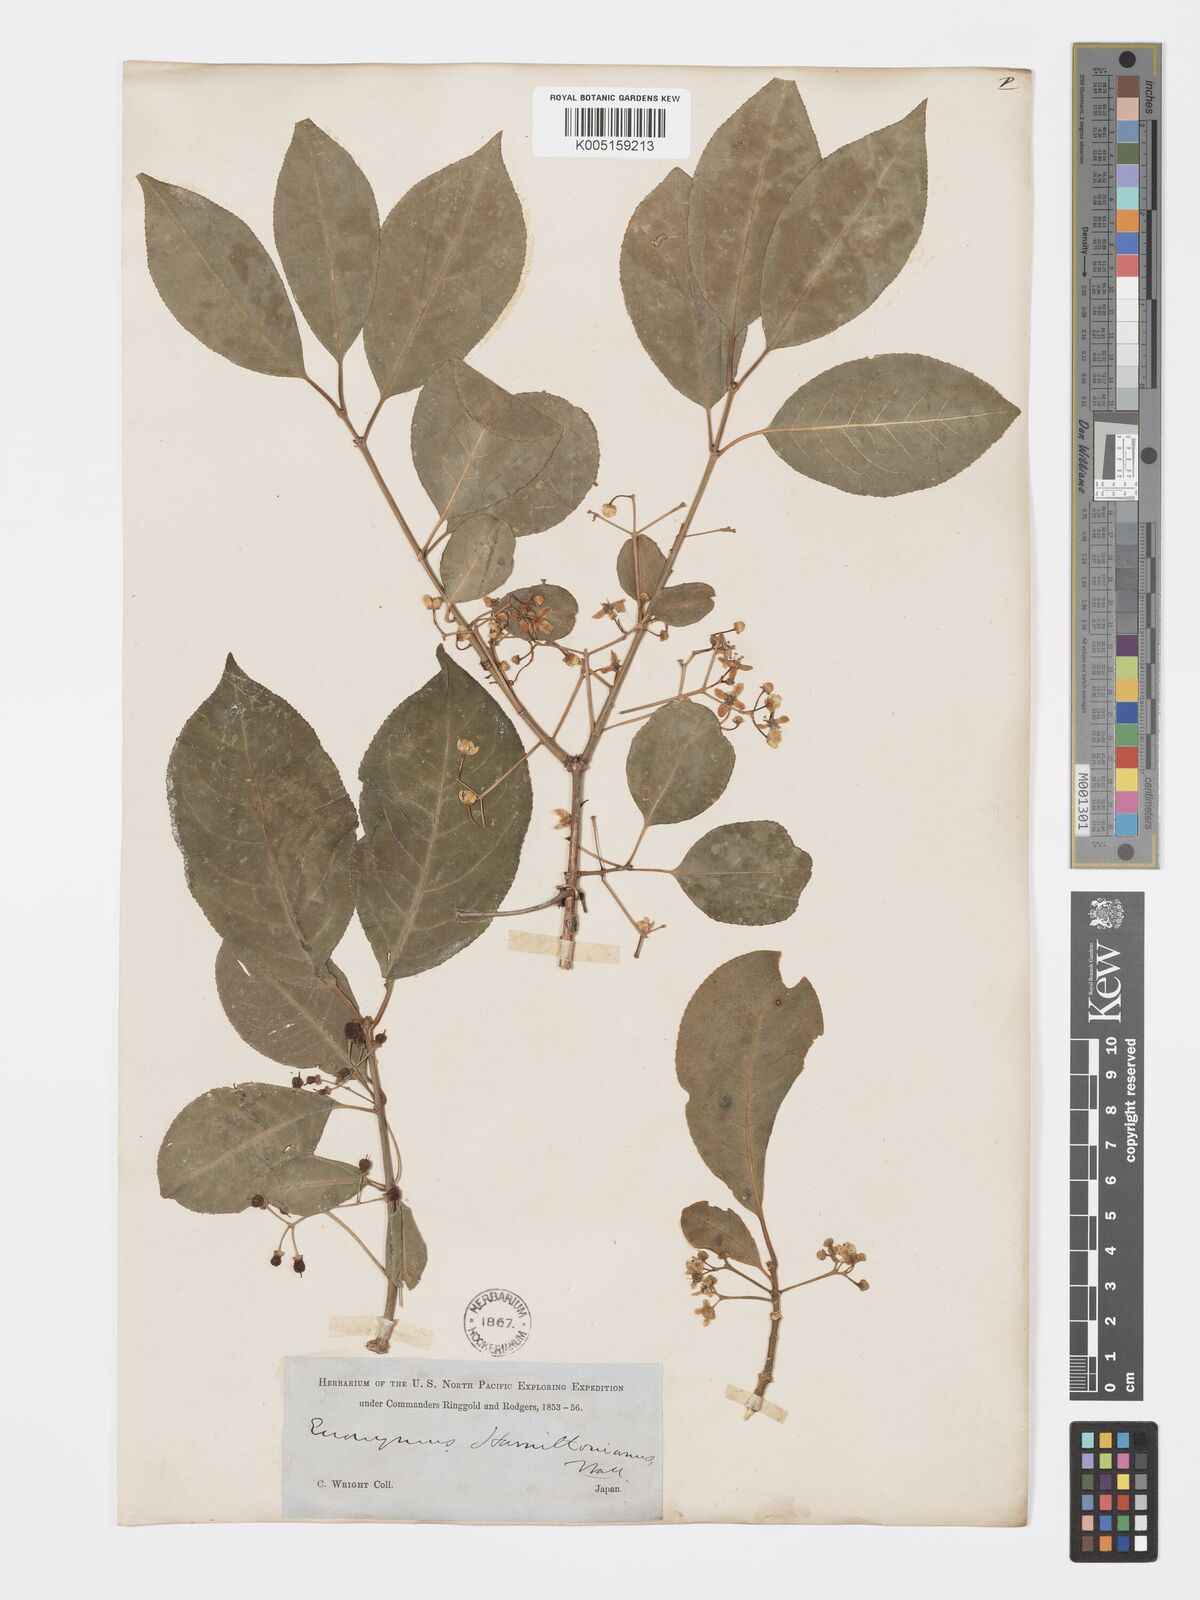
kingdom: Plantae
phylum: Tracheophyta
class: Magnoliopsida
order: Celastrales
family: Celastraceae
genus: Euonymus
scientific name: Euonymus hamiltonianus
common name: Hamilton's spindletree
